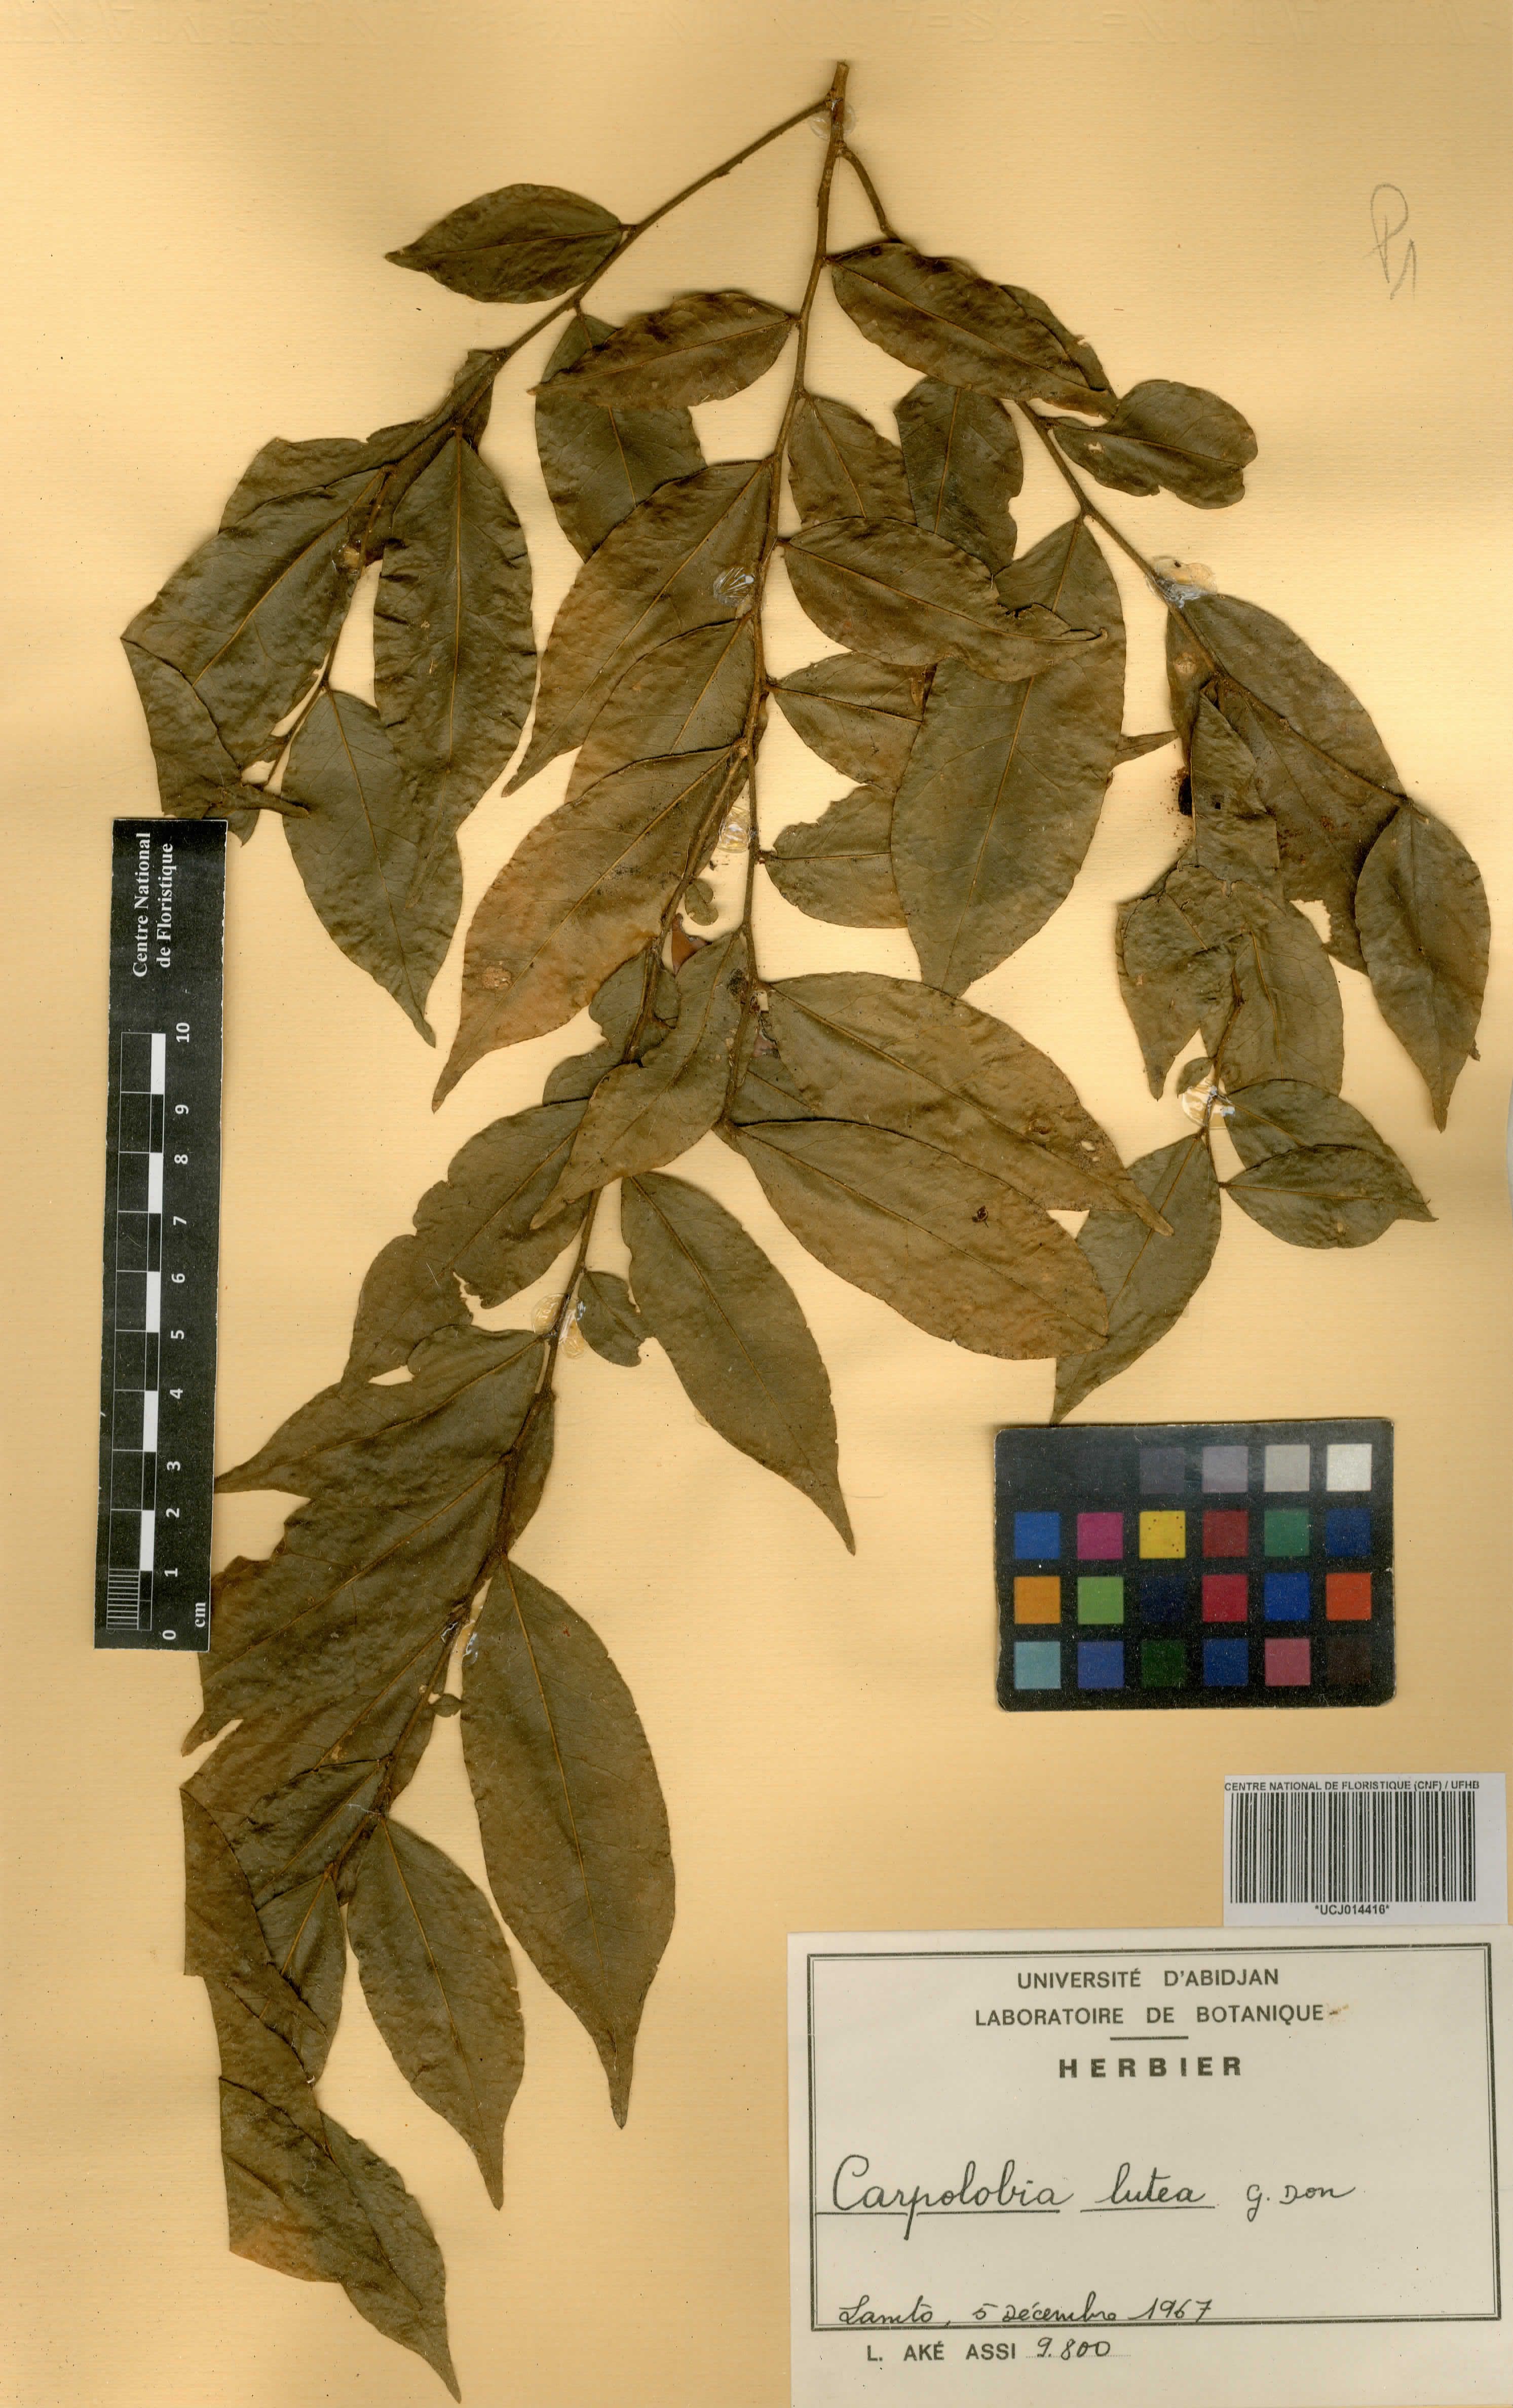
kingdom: Plantae
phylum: Tracheophyta
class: Magnoliopsida
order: Fabales
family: Polygalaceae
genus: Carpolobia
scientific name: Carpolobia lutea
